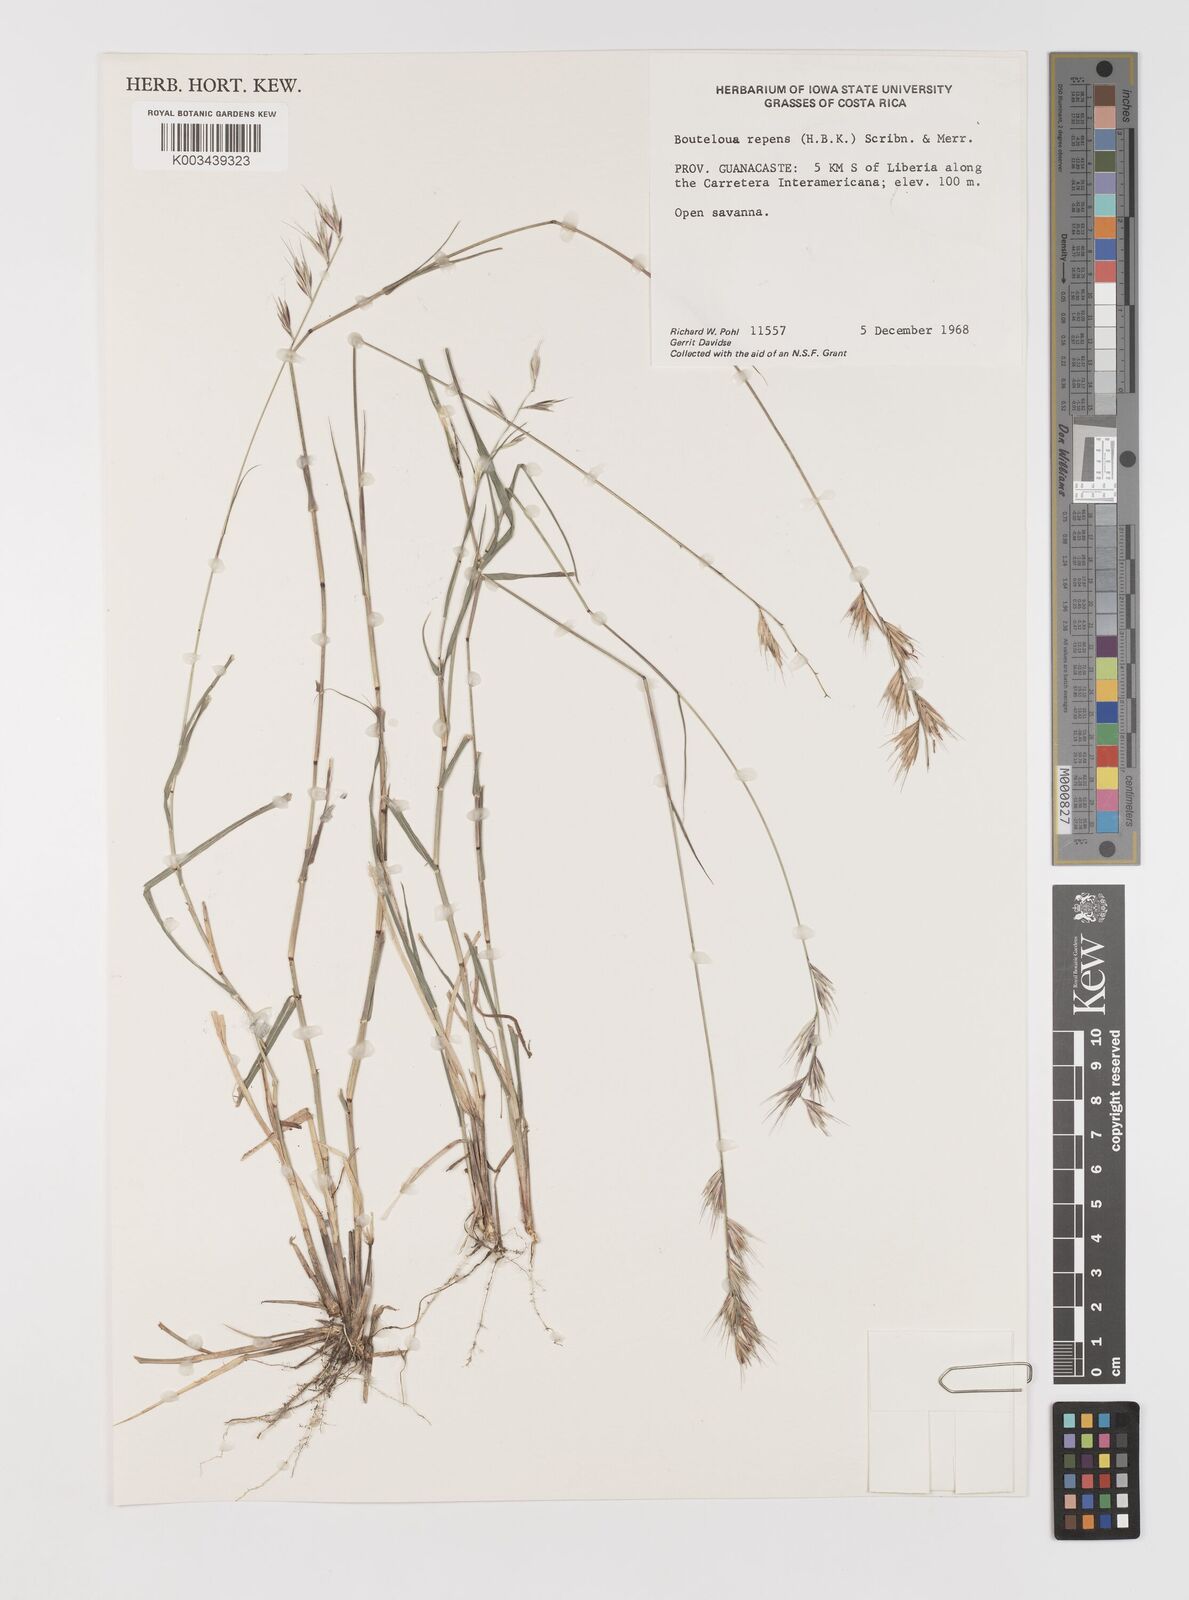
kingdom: Plantae
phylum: Tracheophyta
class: Liliopsida
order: Poales
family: Poaceae
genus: Bouteloua
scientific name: Bouteloua repens
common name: Slender grama
